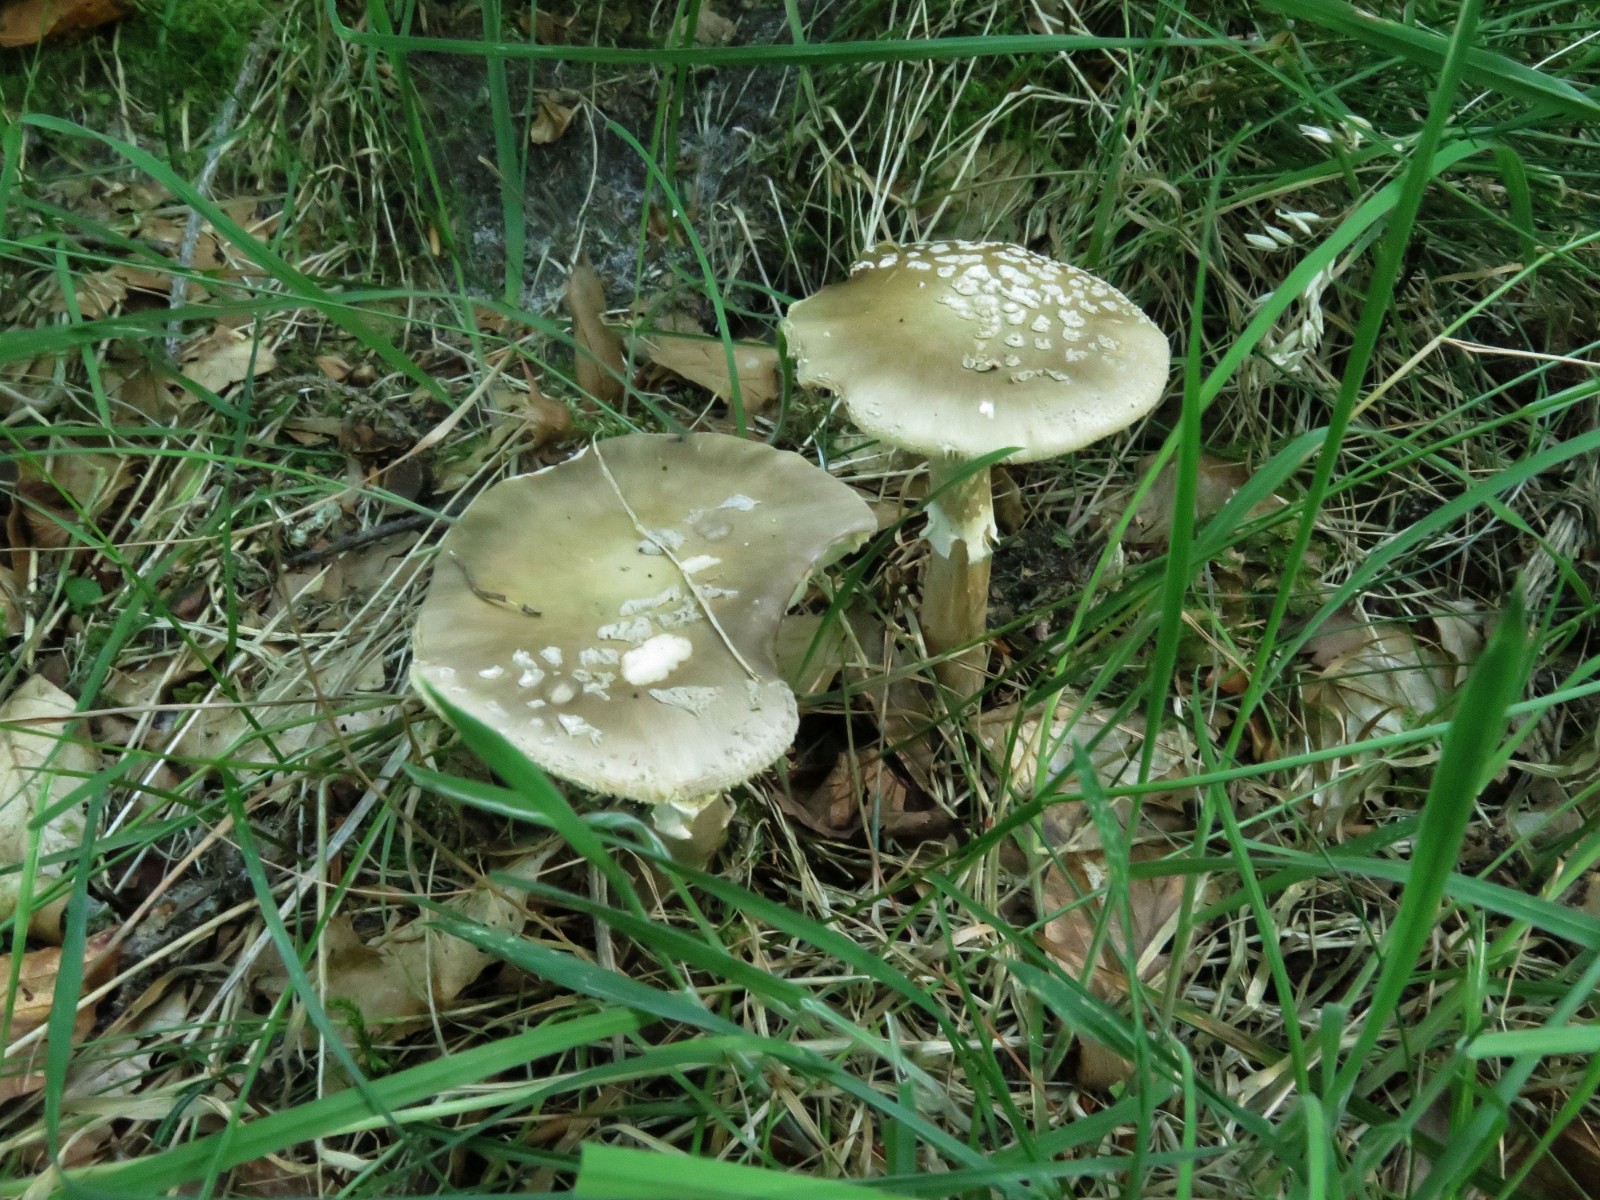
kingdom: Fungi
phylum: Basidiomycota
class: Agaricomycetes
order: Agaricales
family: Amanitaceae
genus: Amanita
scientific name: Amanita
